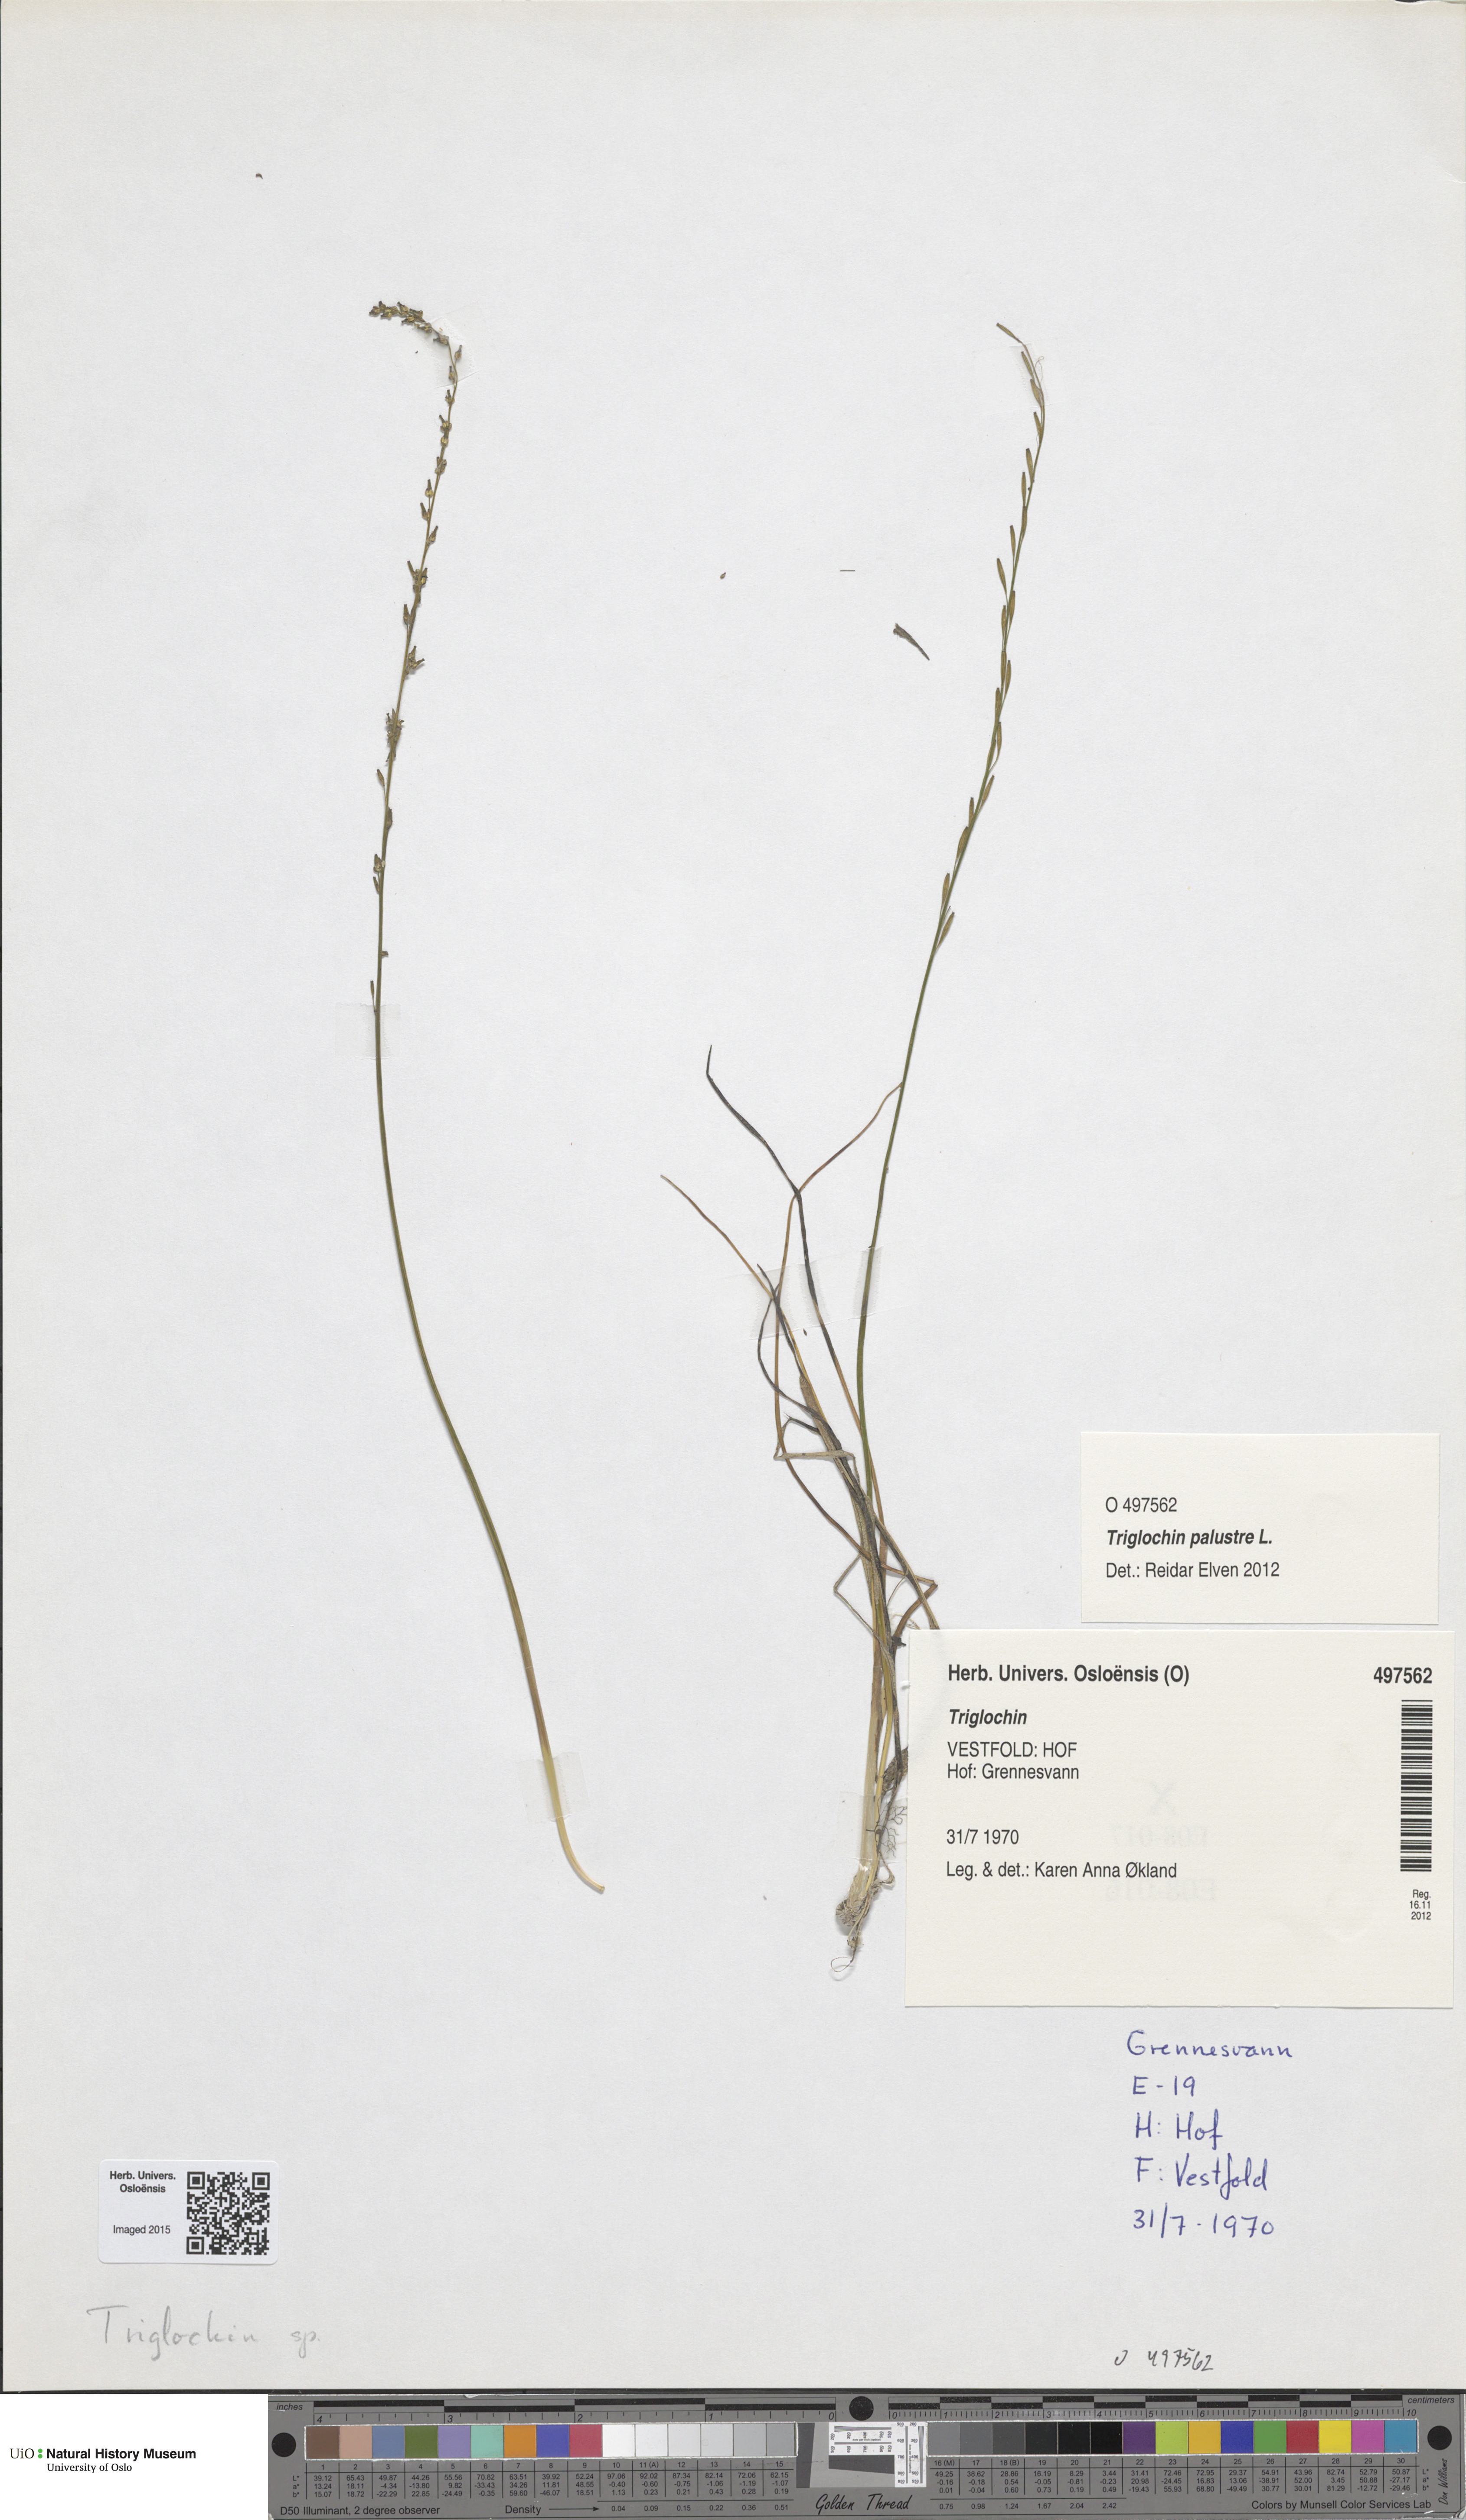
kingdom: Plantae
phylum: Tracheophyta
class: Liliopsida
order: Alismatales
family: Juncaginaceae
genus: Triglochin
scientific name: Triglochin
